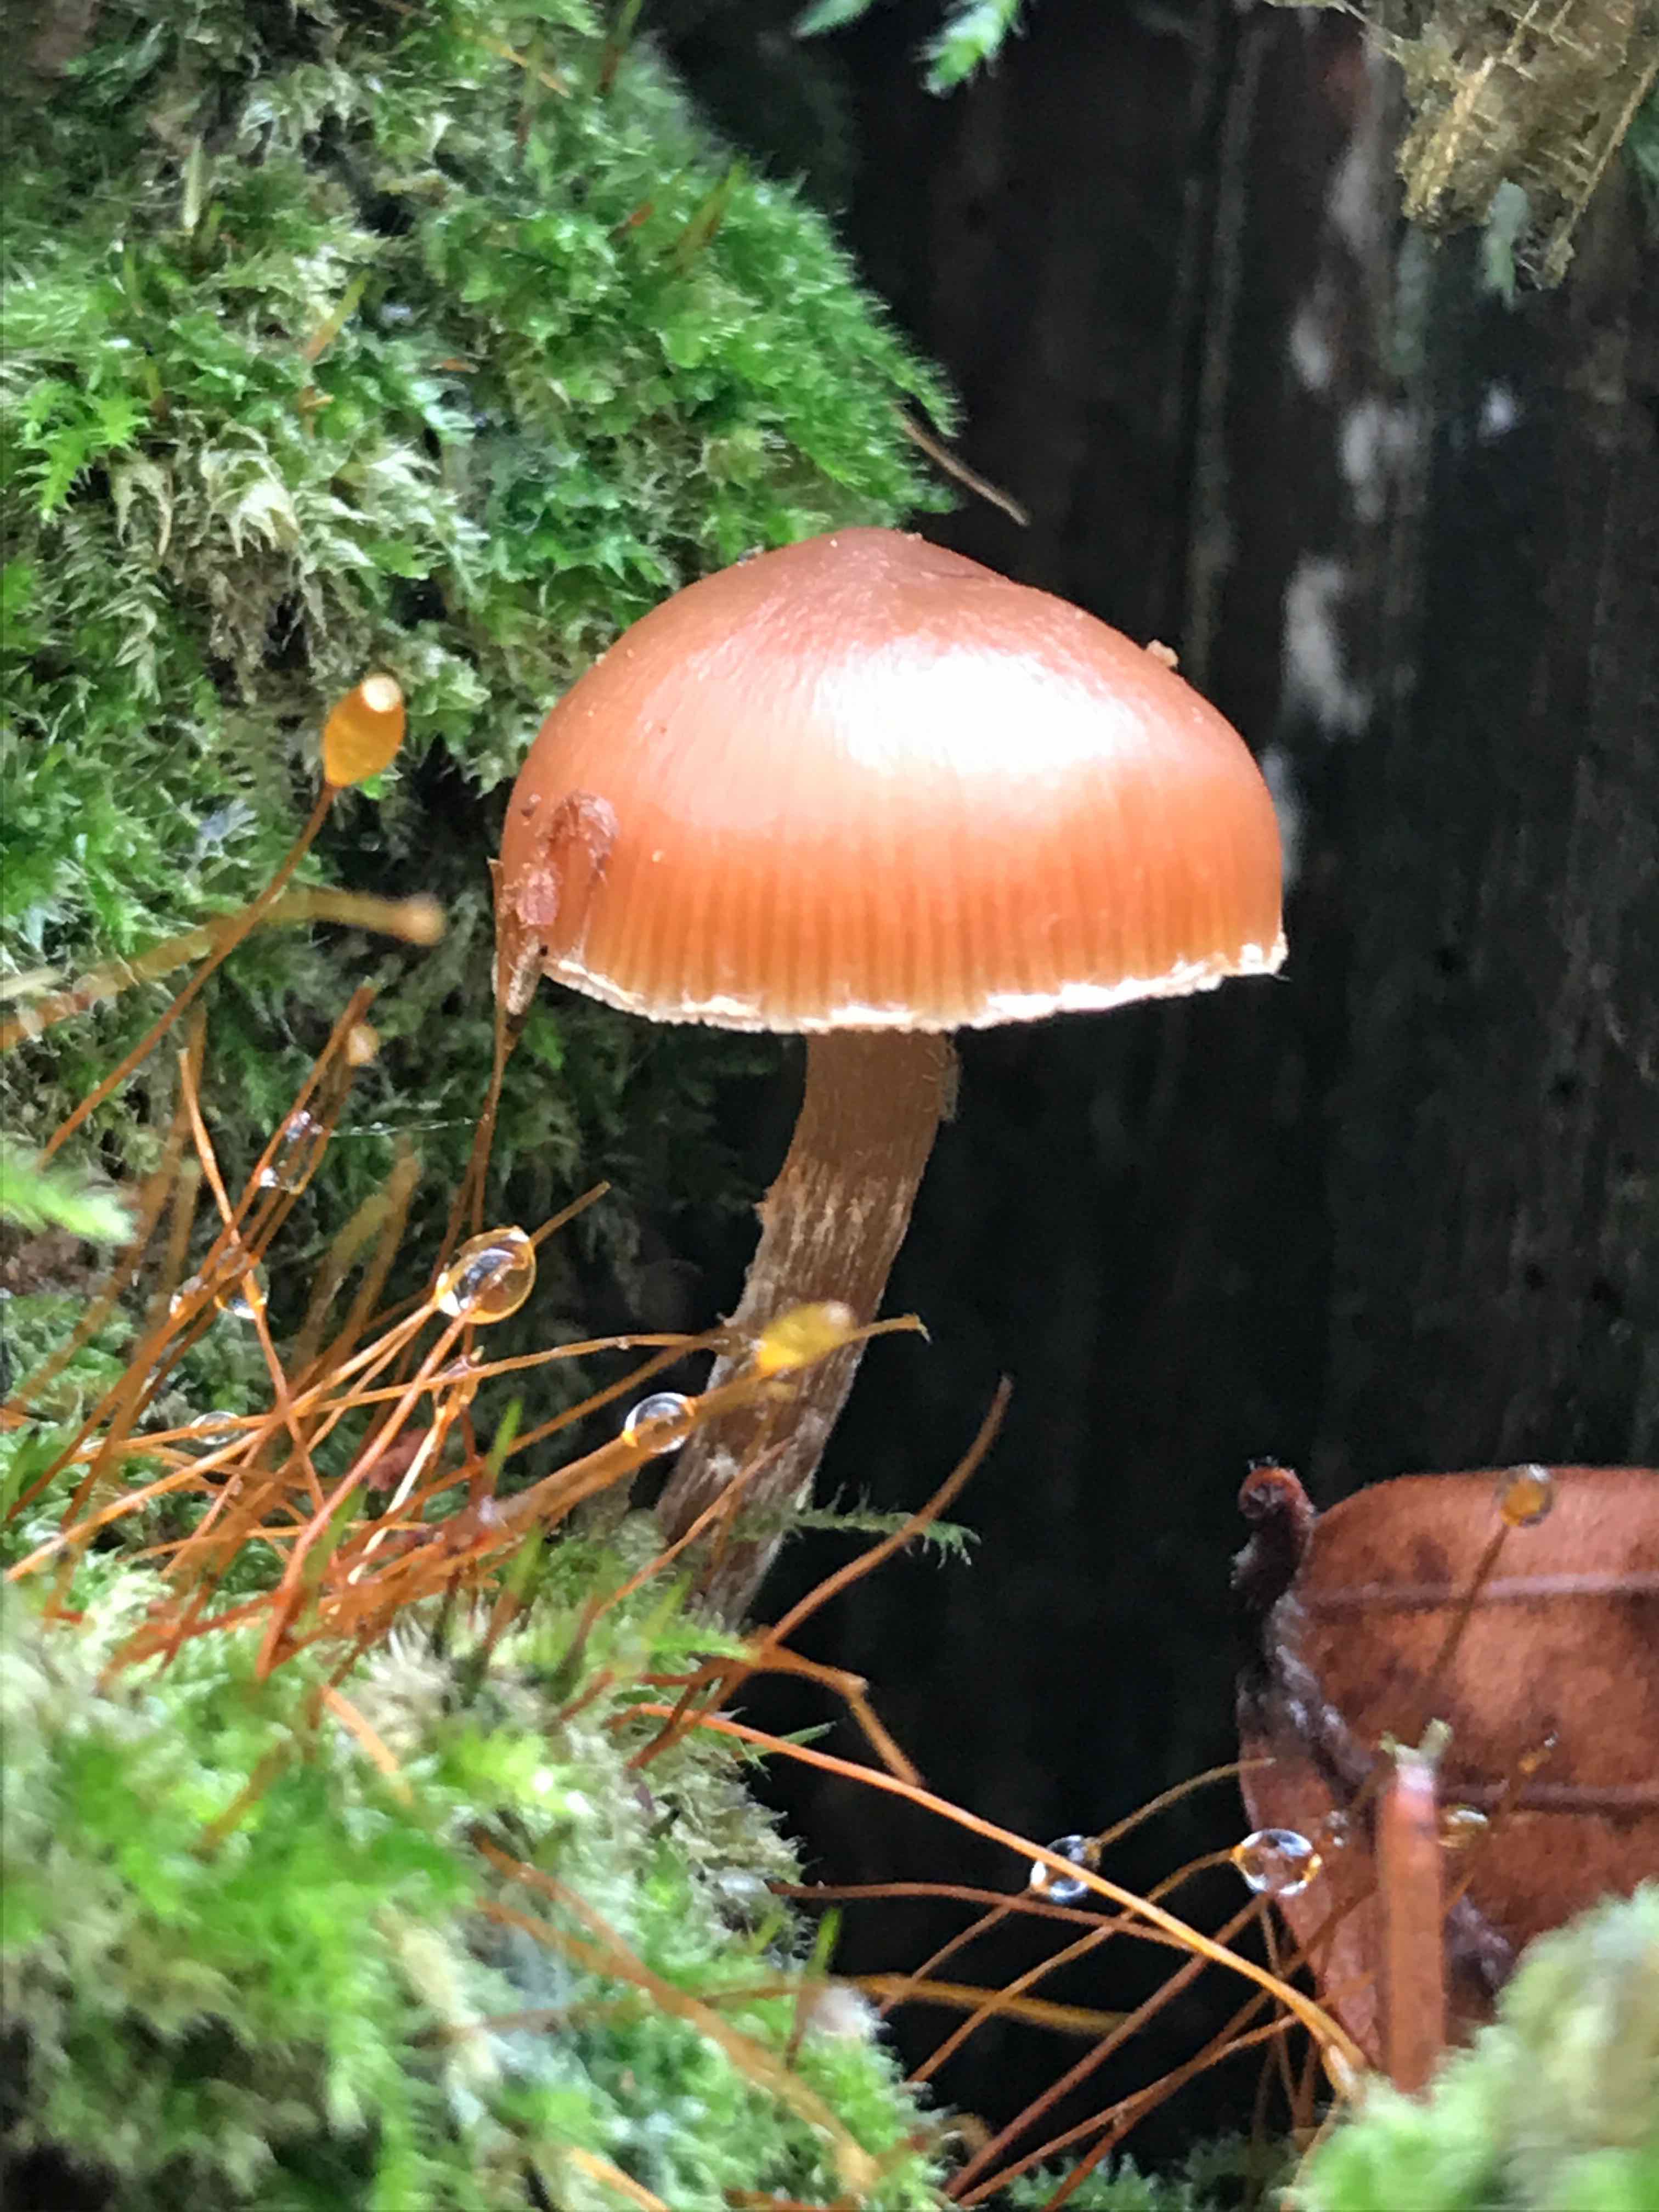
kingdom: Fungi
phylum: Basidiomycota
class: Agaricomycetes
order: Agaricales
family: Hymenogastraceae
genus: Galerina
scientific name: Galerina
